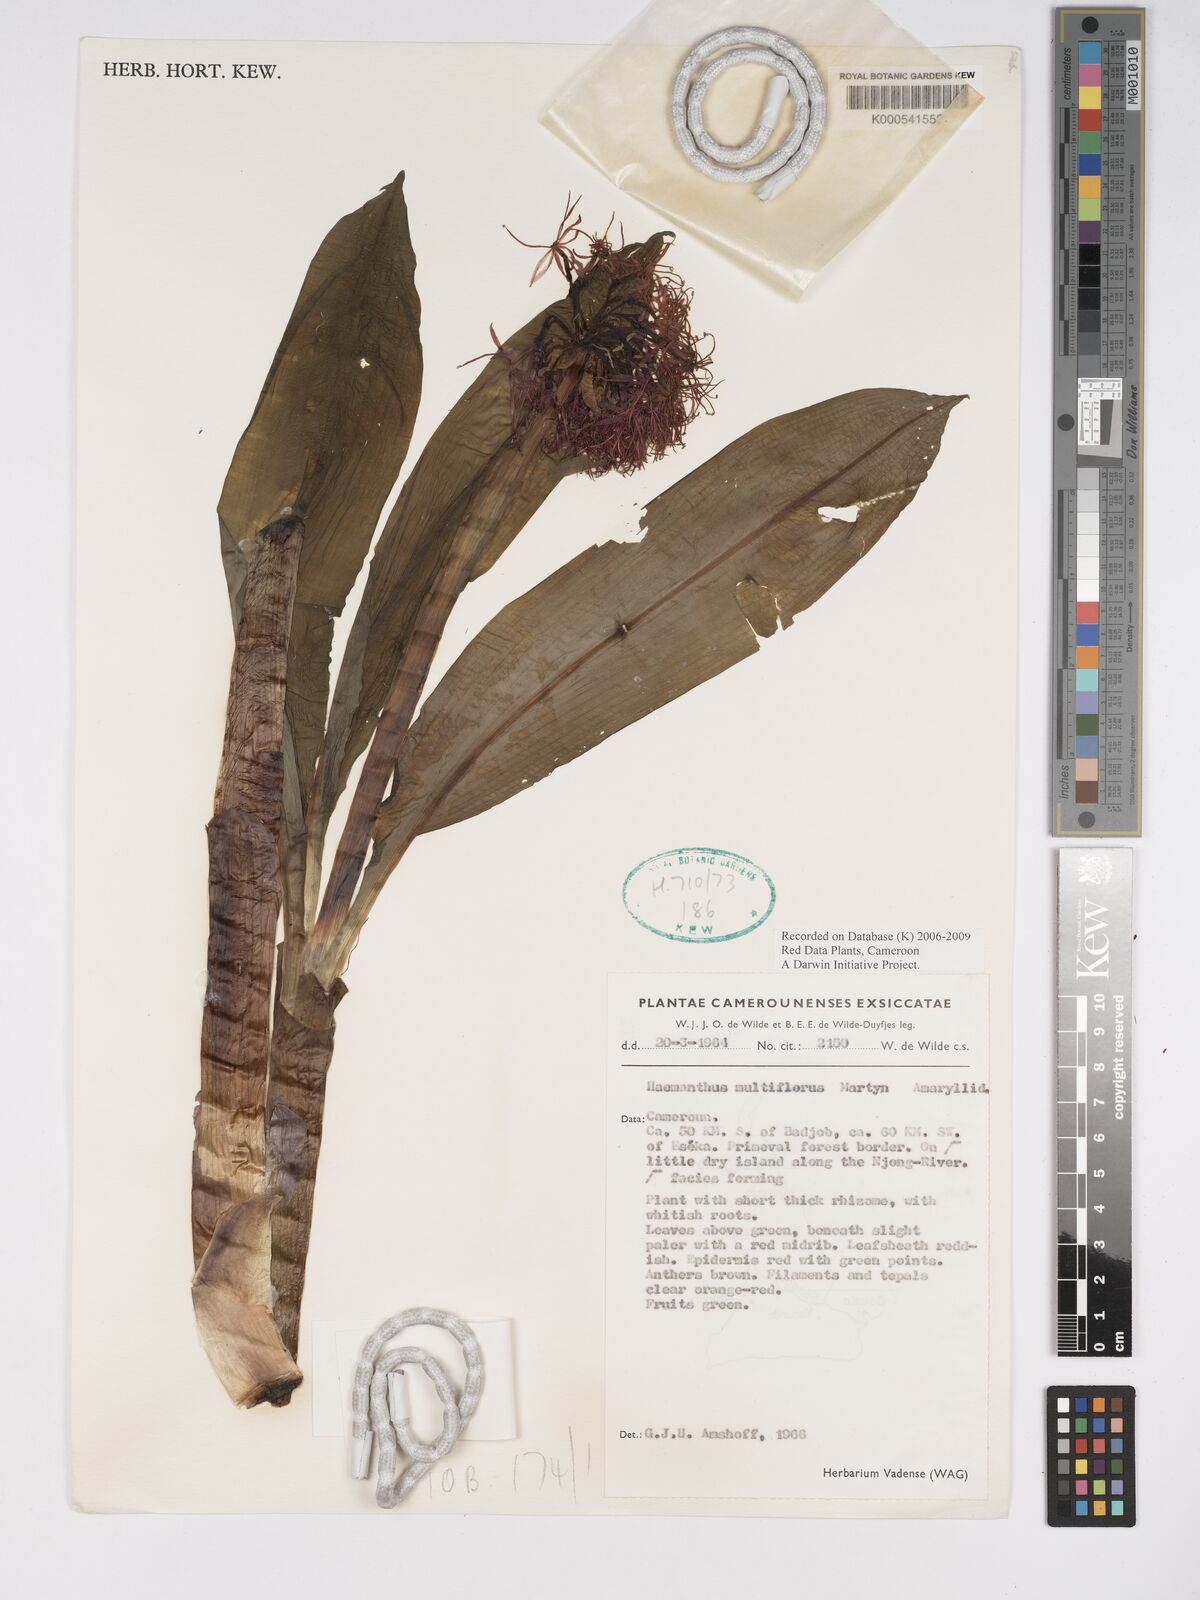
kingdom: Plantae
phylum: Tracheophyta
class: Liliopsida
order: Asparagales
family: Amaryllidaceae
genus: Scadoxus
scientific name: Scadoxus pseudocaulus
